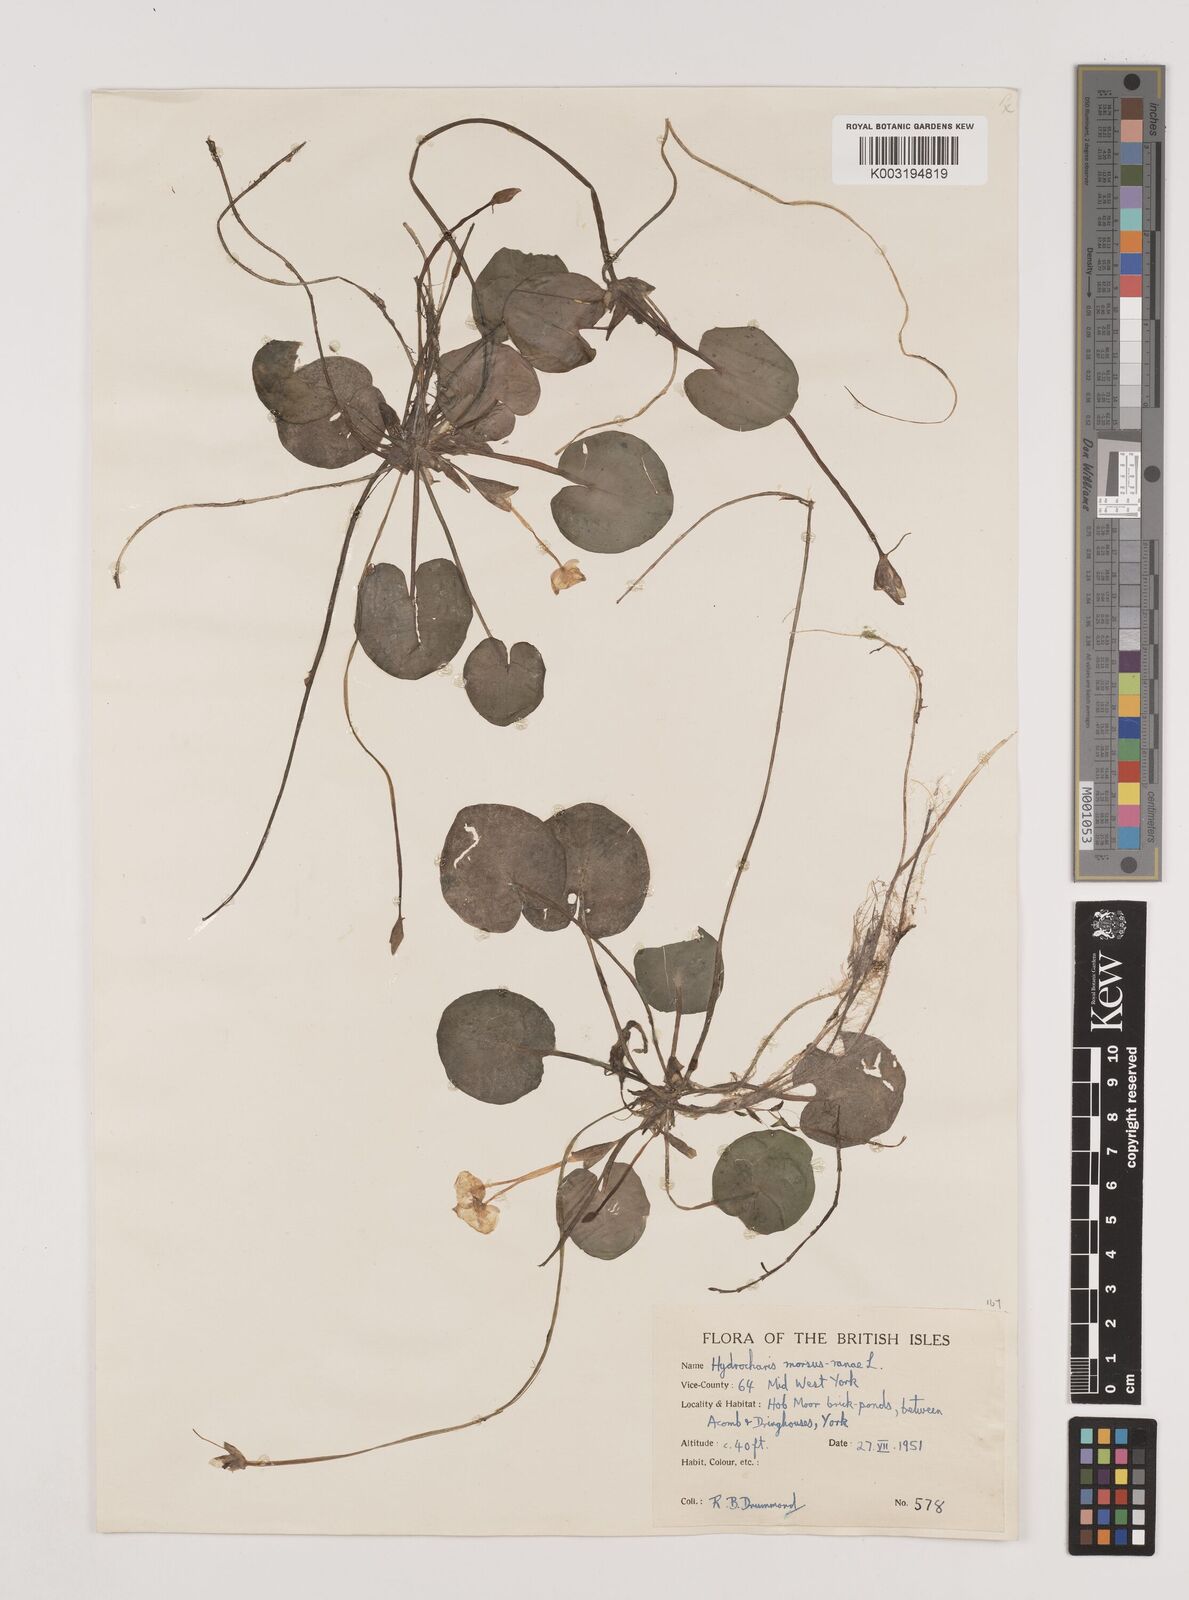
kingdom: Plantae
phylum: Tracheophyta
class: Liliopsida
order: Alismatales
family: Hydrocharitaceae
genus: Hydrocharis
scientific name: Hydrocharis morsus-ranae
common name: Frogbit
